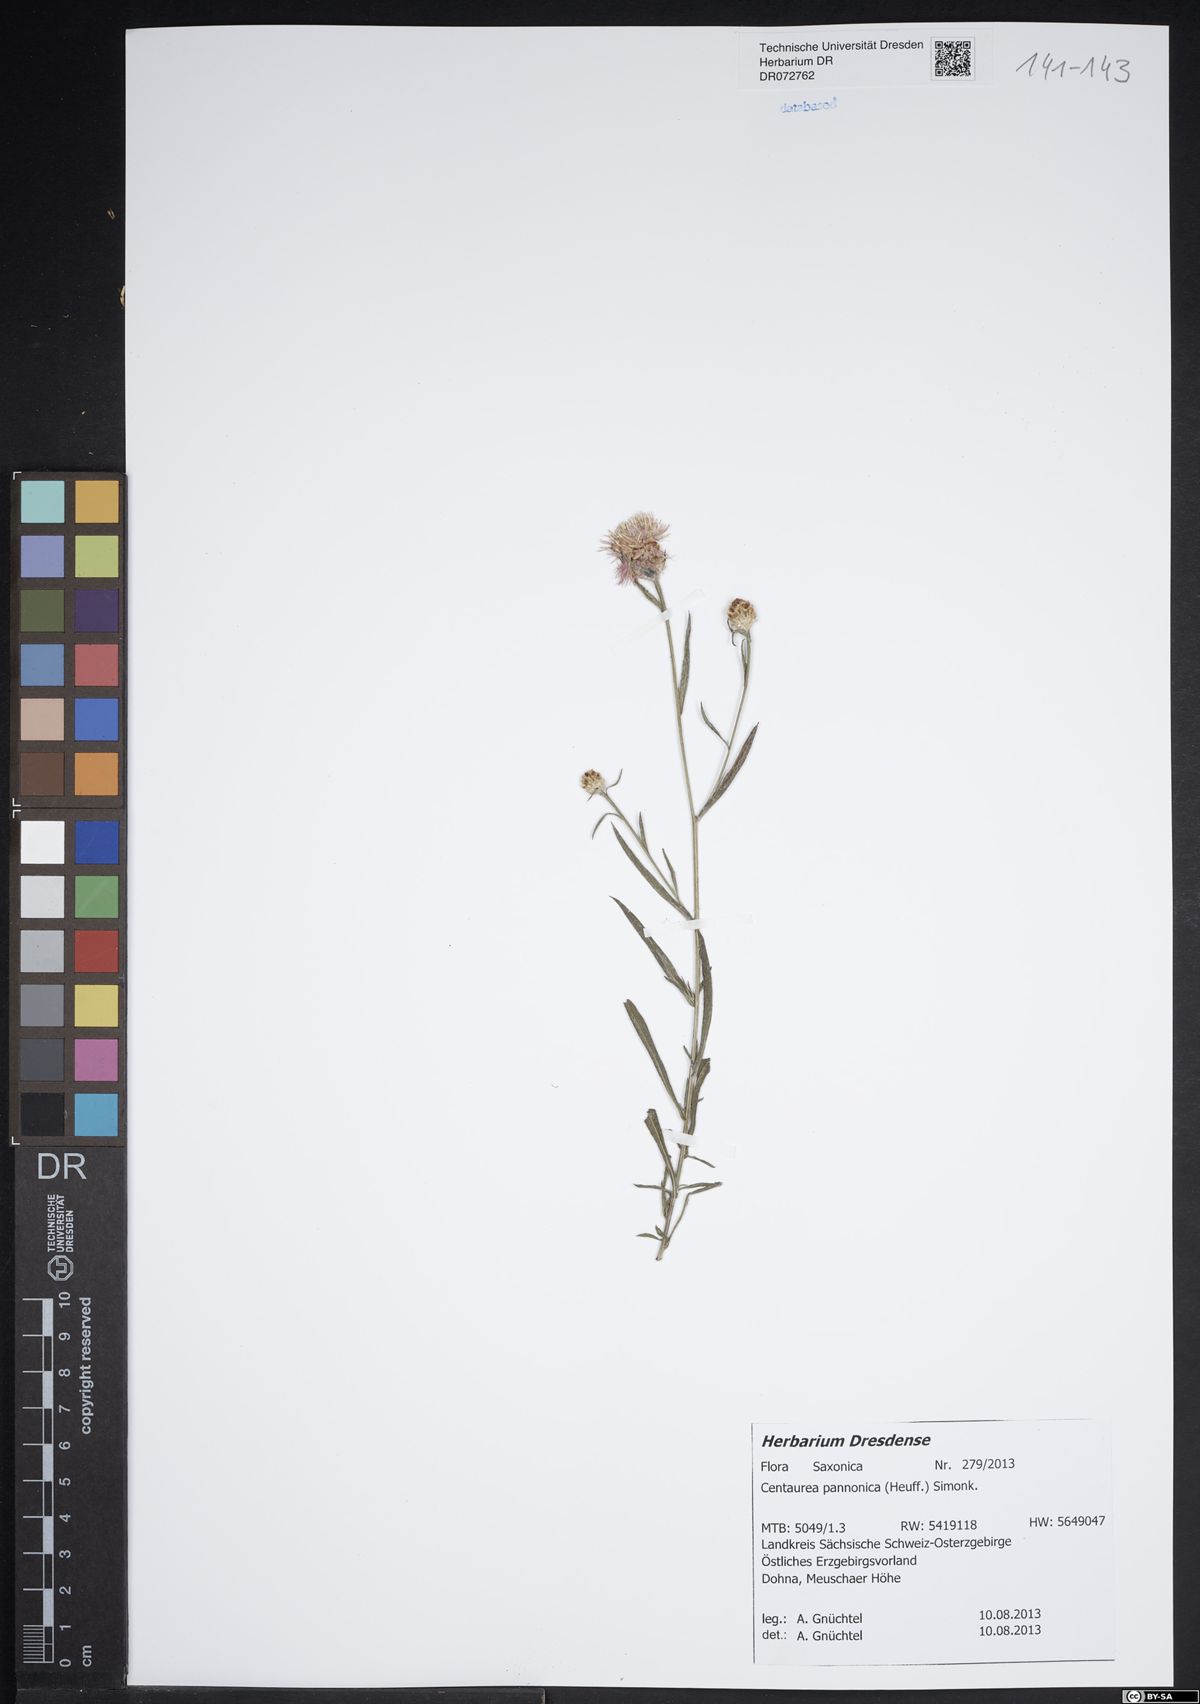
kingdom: Plantae
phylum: Tracheophyta
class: Magnoliopsida
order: Asterales
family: Asteraceae
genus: Centaurea
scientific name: Centaurea pannonica
